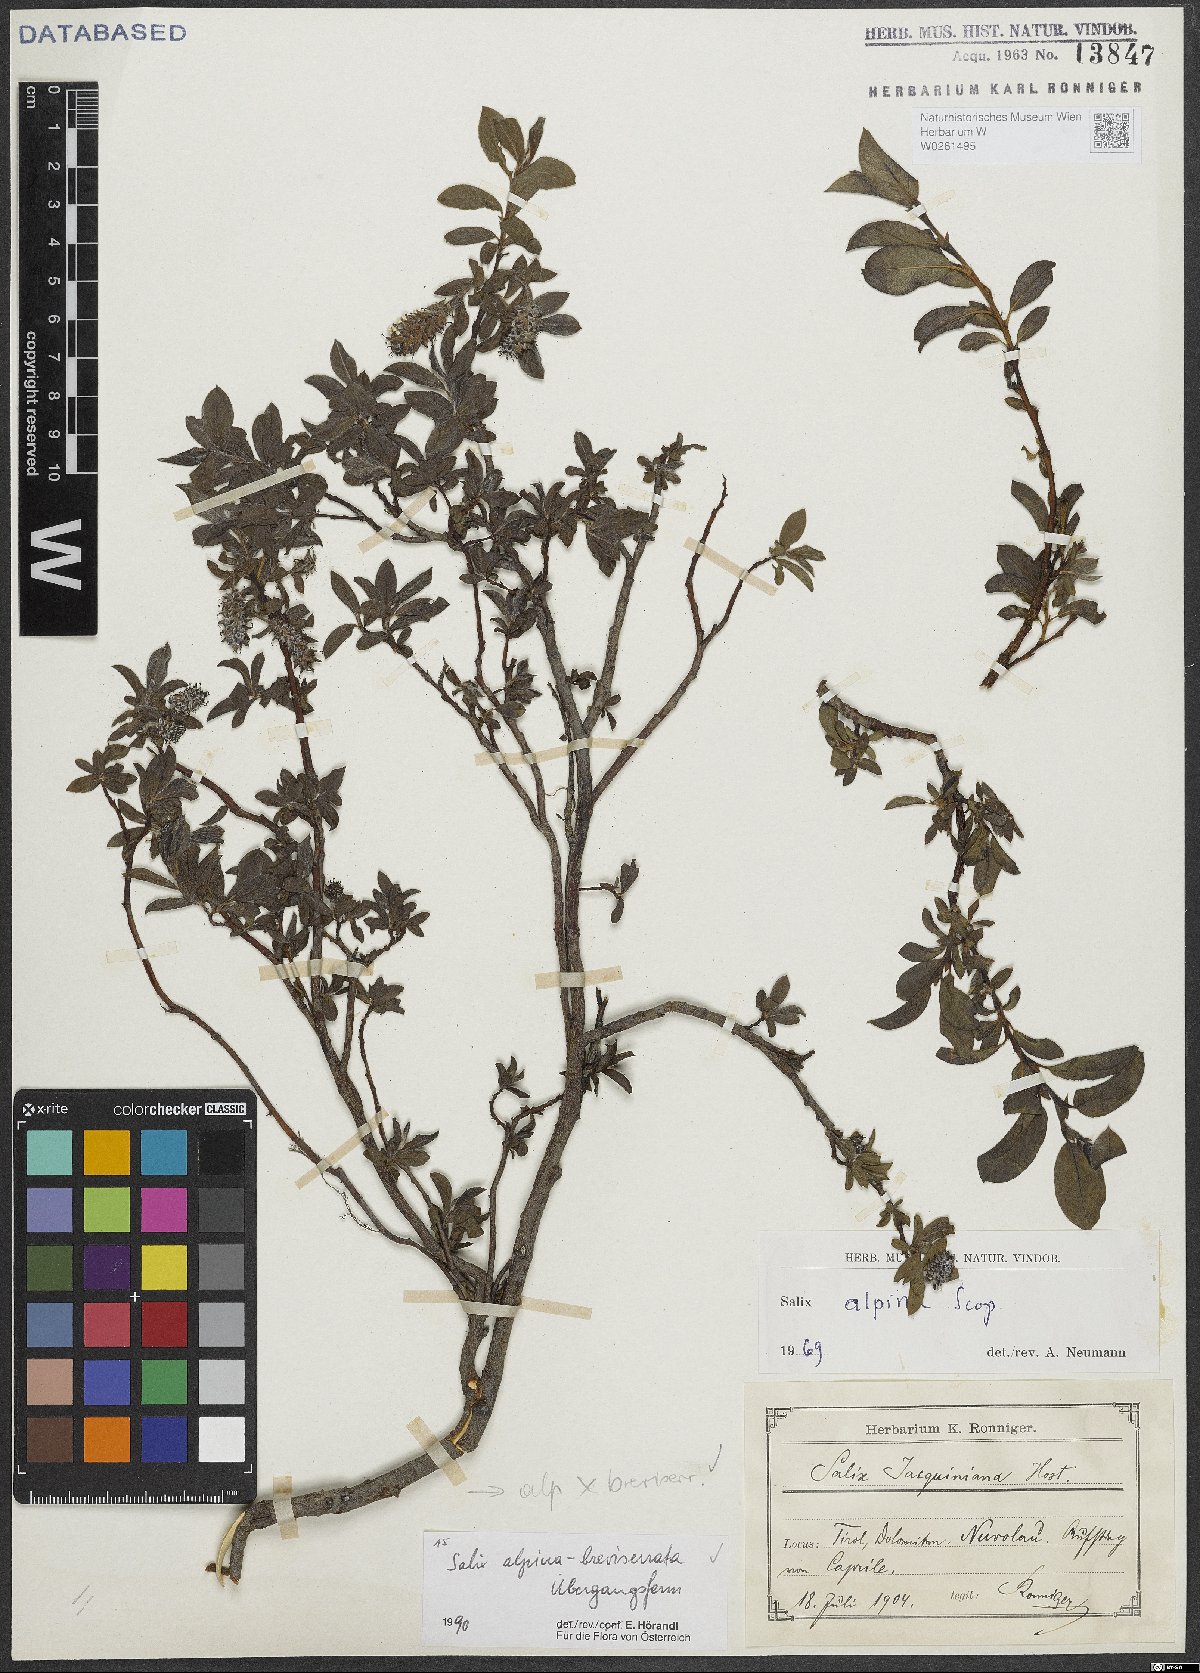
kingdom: Plantae
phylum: Tracheophyta
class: Magnoliopsida
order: Malpighiales
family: Salicaceae
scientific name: Salicaceae
